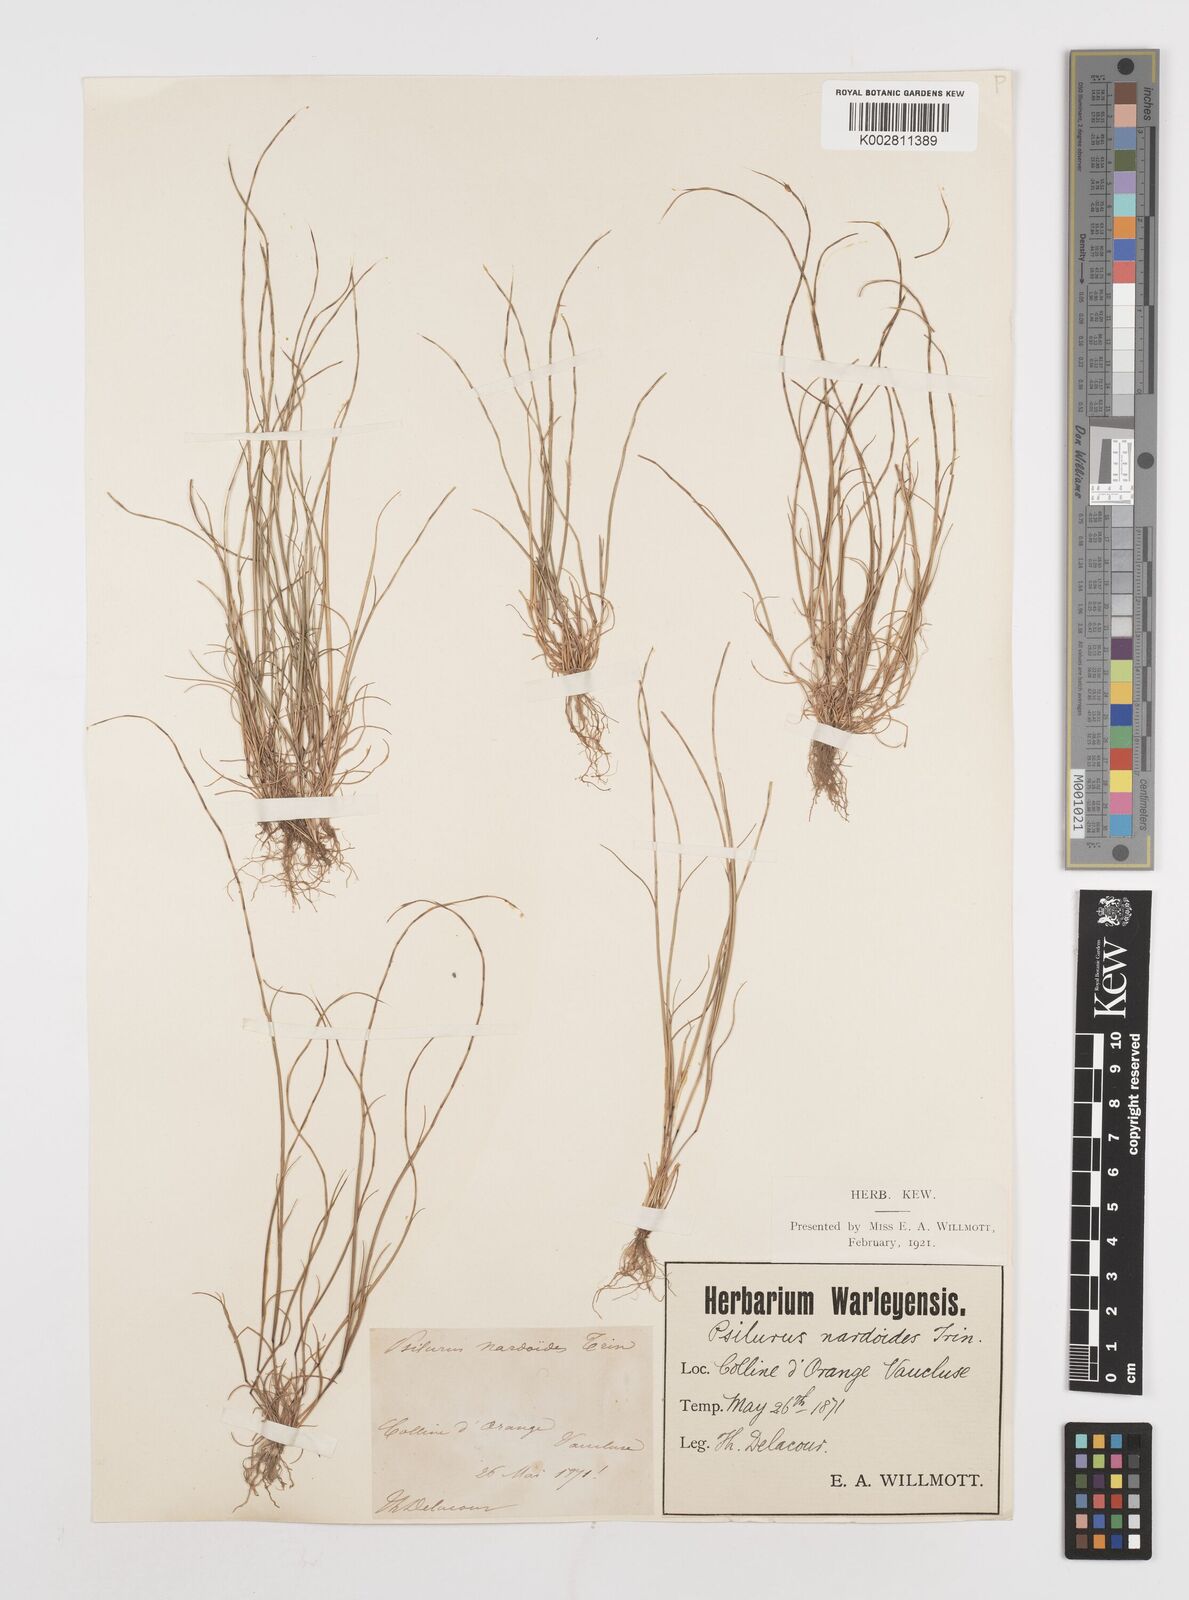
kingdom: Plantae
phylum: Tracheophyta
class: Liliopsida
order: Poales
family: Poaceae
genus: Festuca
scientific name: Festuca incurva
